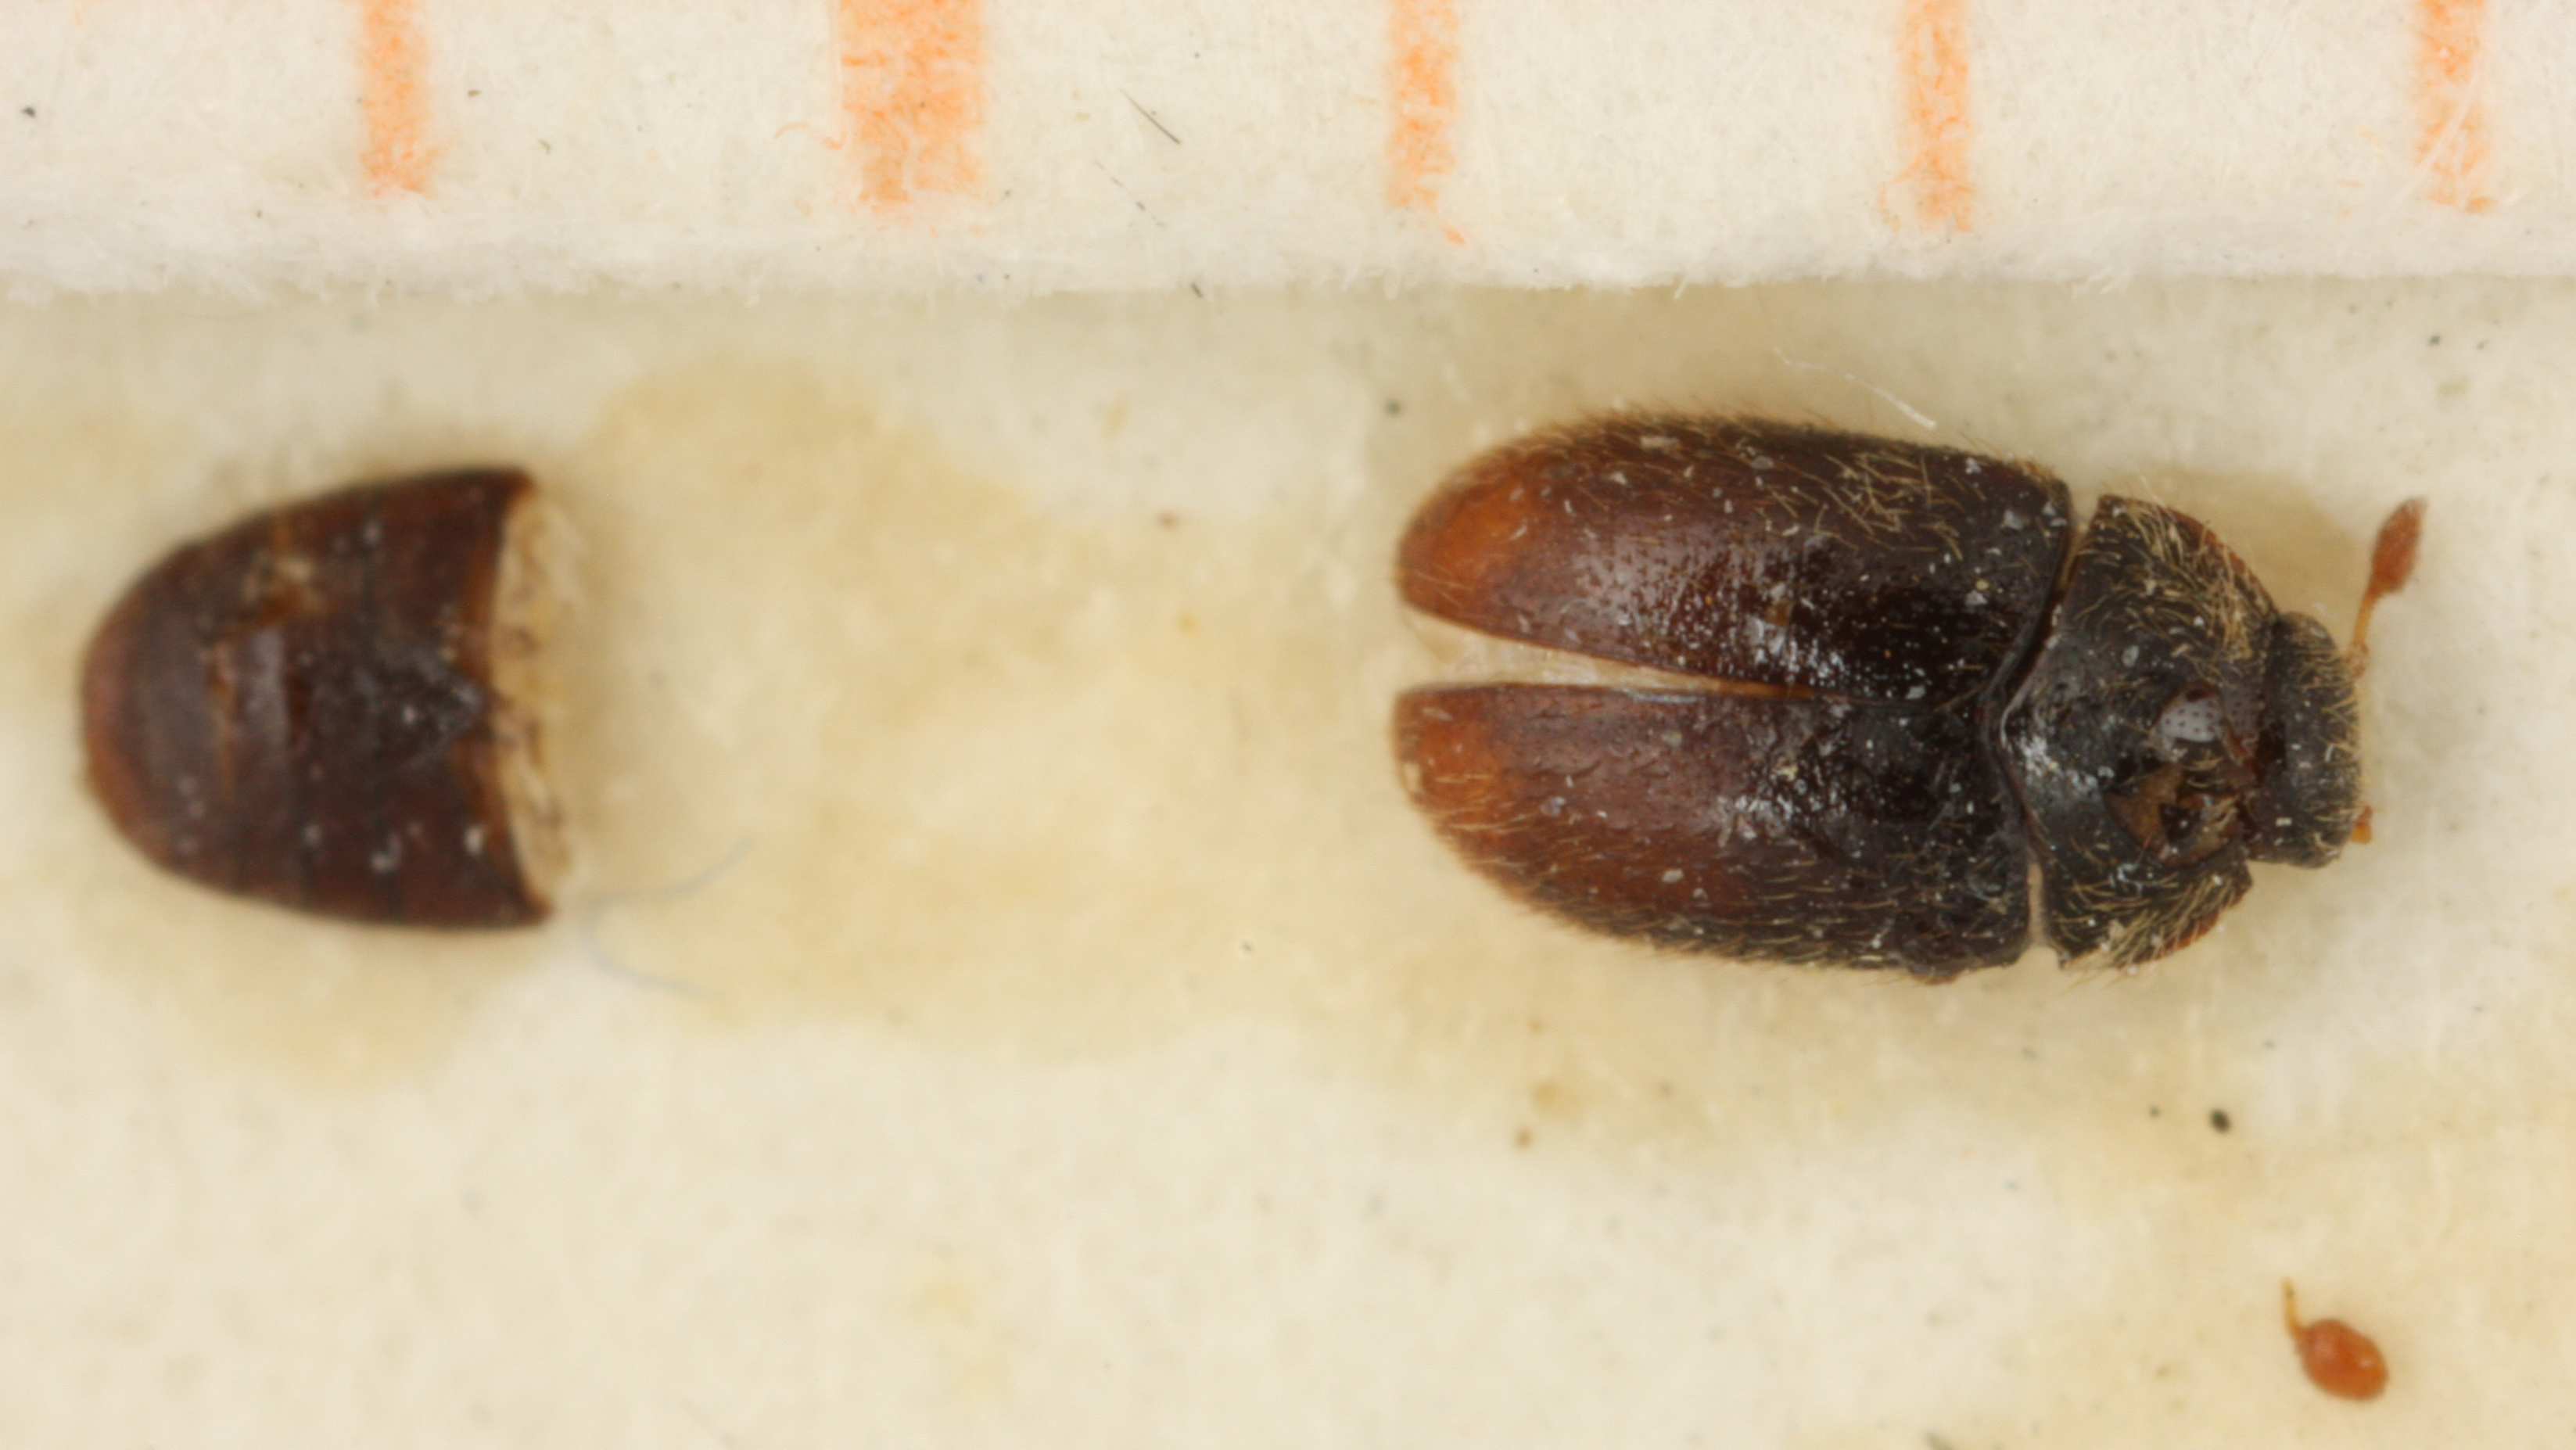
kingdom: Animalia
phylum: Arthropoda
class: Insecta
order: Coleoptera
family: Dermestidae
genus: Orphinus
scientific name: Orphinus
